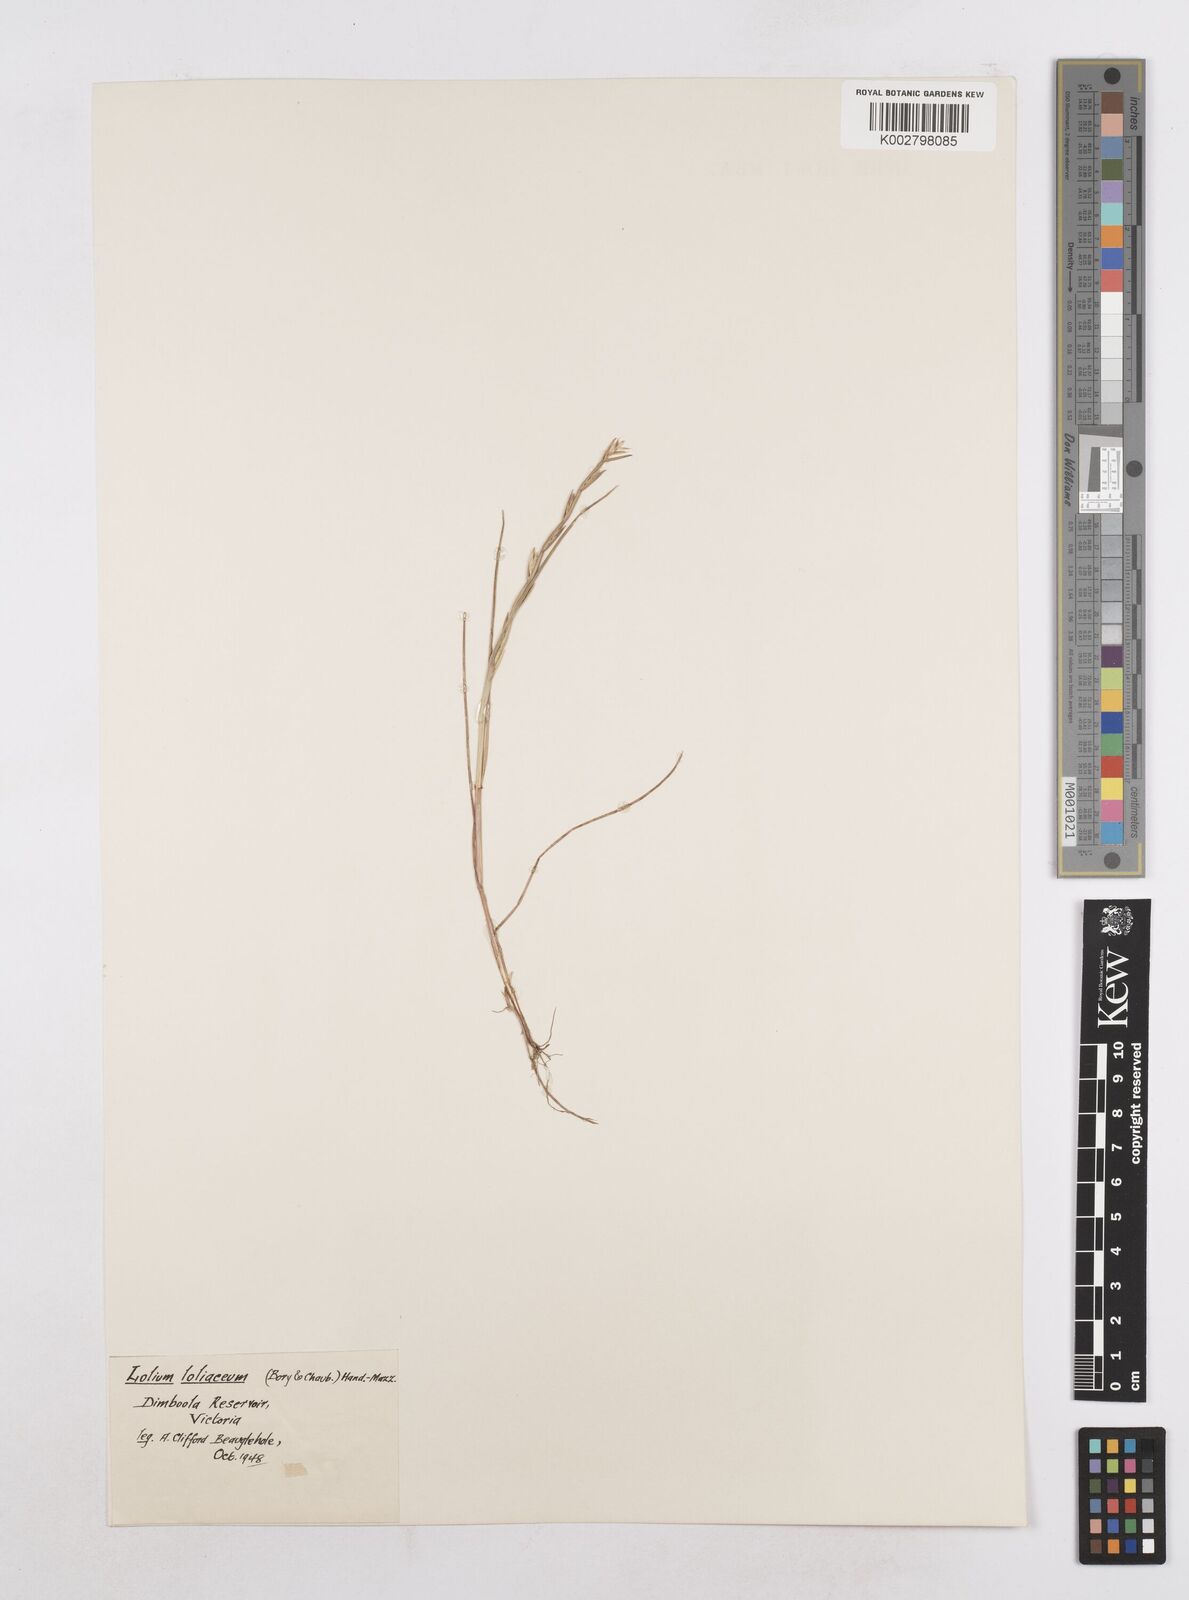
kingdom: Plantae
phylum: Tracheophyta
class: Liliopsida
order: Poales
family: Poaceae
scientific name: Poaceae
